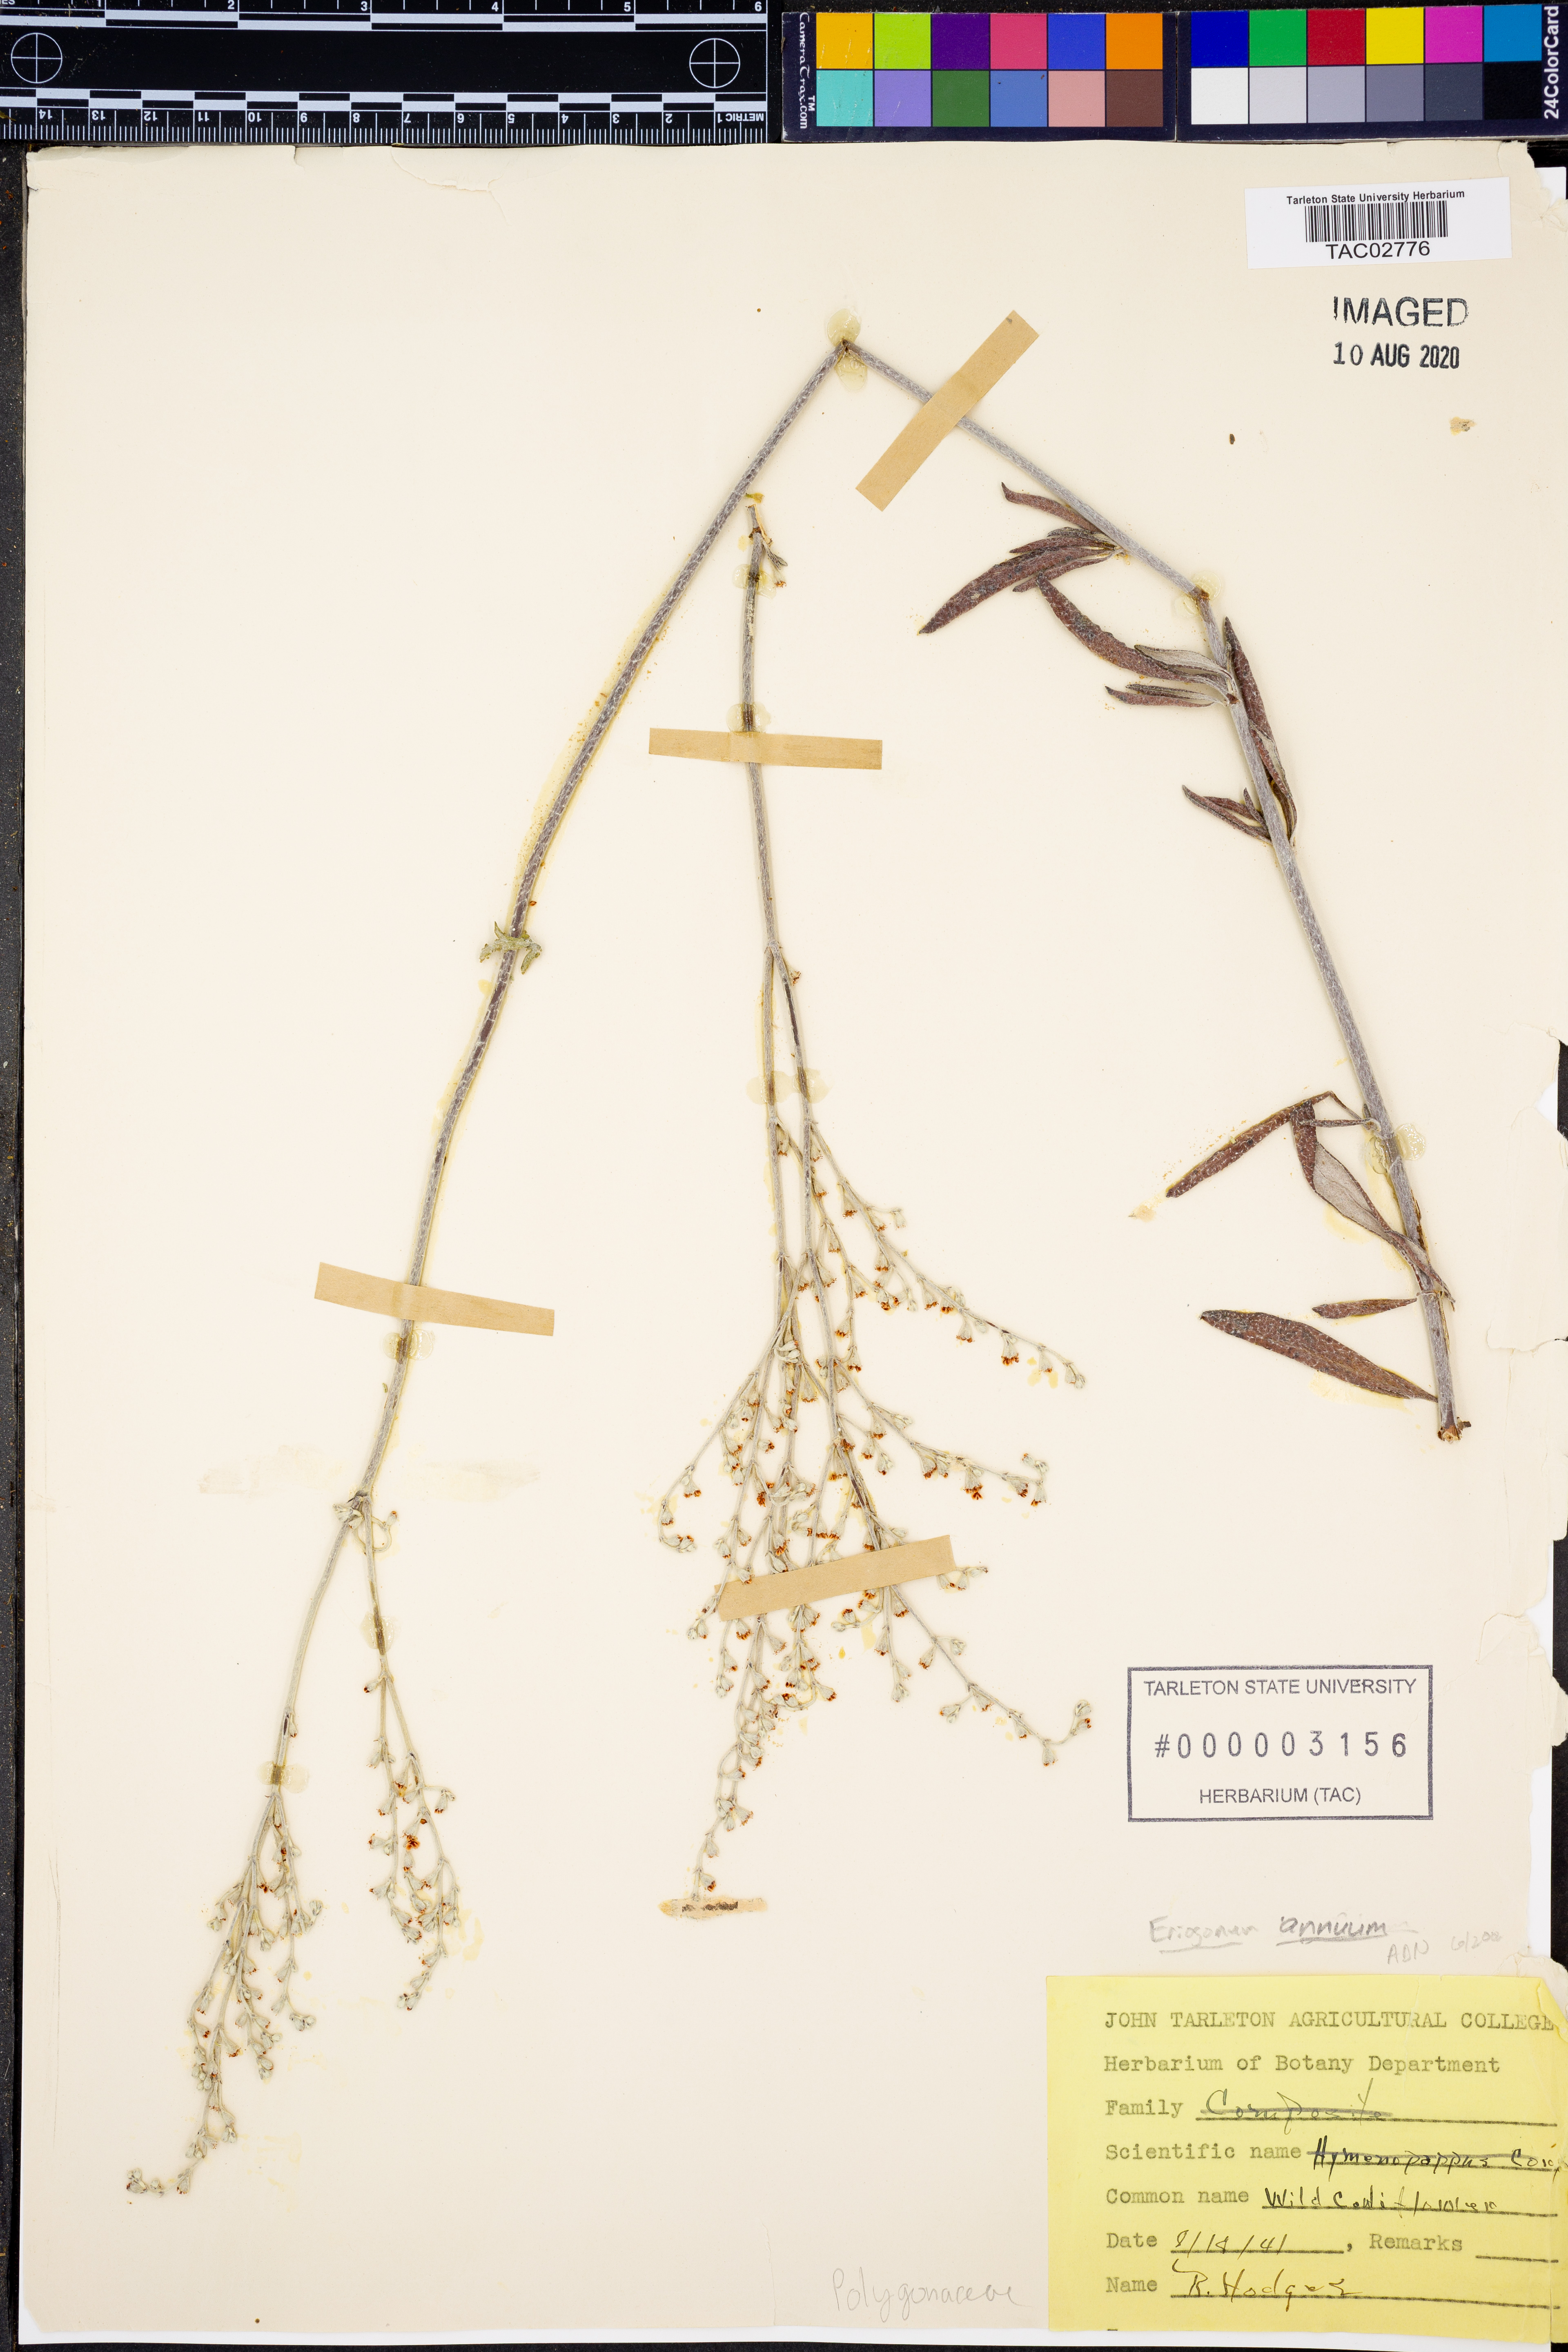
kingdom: Plantae
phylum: Tracheophyta
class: Magnoliopsida
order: Caryophyllales
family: Polygonaceae
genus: Eriogonum
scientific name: Eriogonum annuum
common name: Annual wild buckwheat
